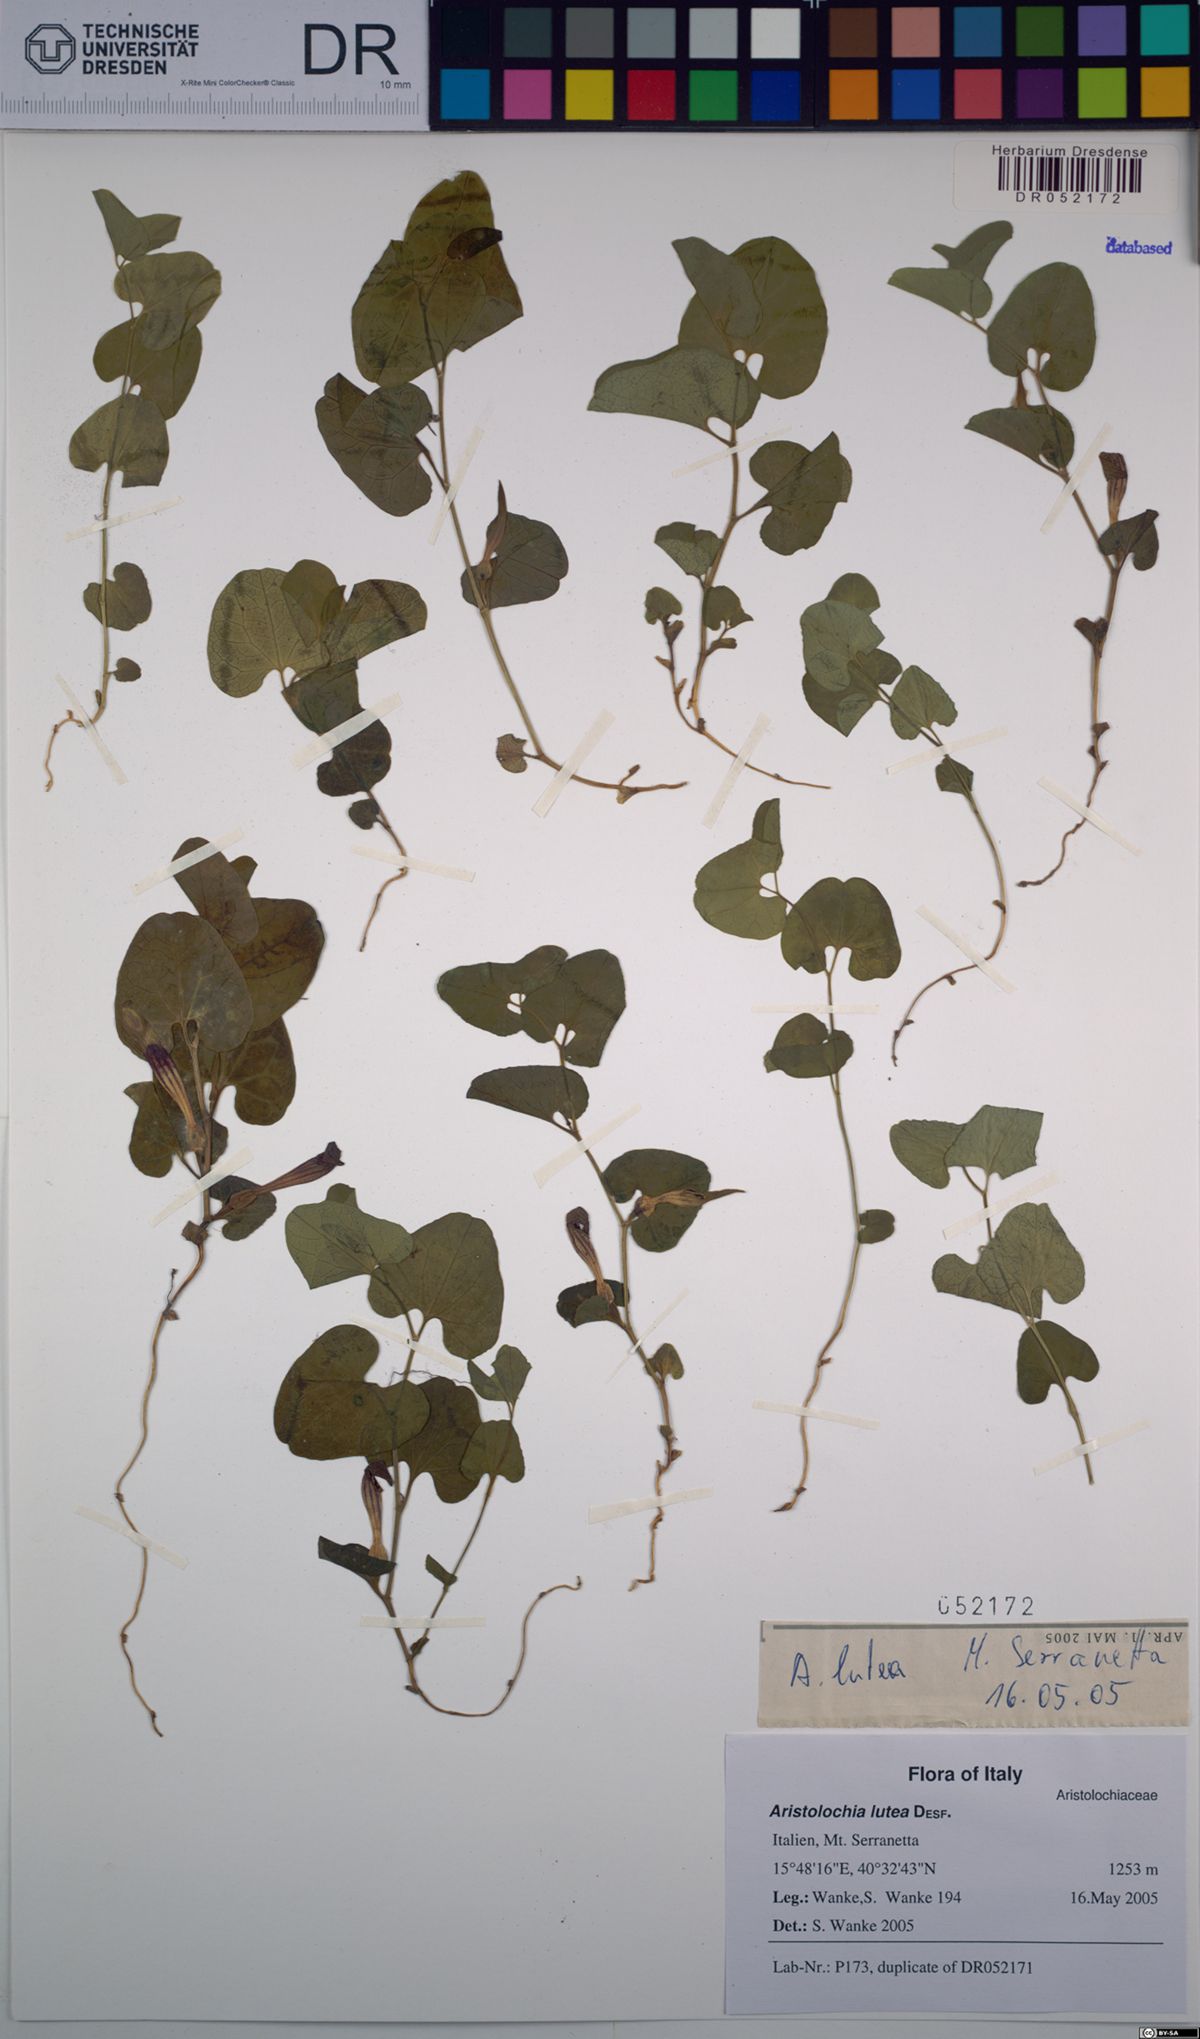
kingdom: Plantae
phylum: Tracheophyta
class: Magnoliopsida
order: Piperales
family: Aristolochiaceae
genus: Aristolochia
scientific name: Aristolochia lutea
